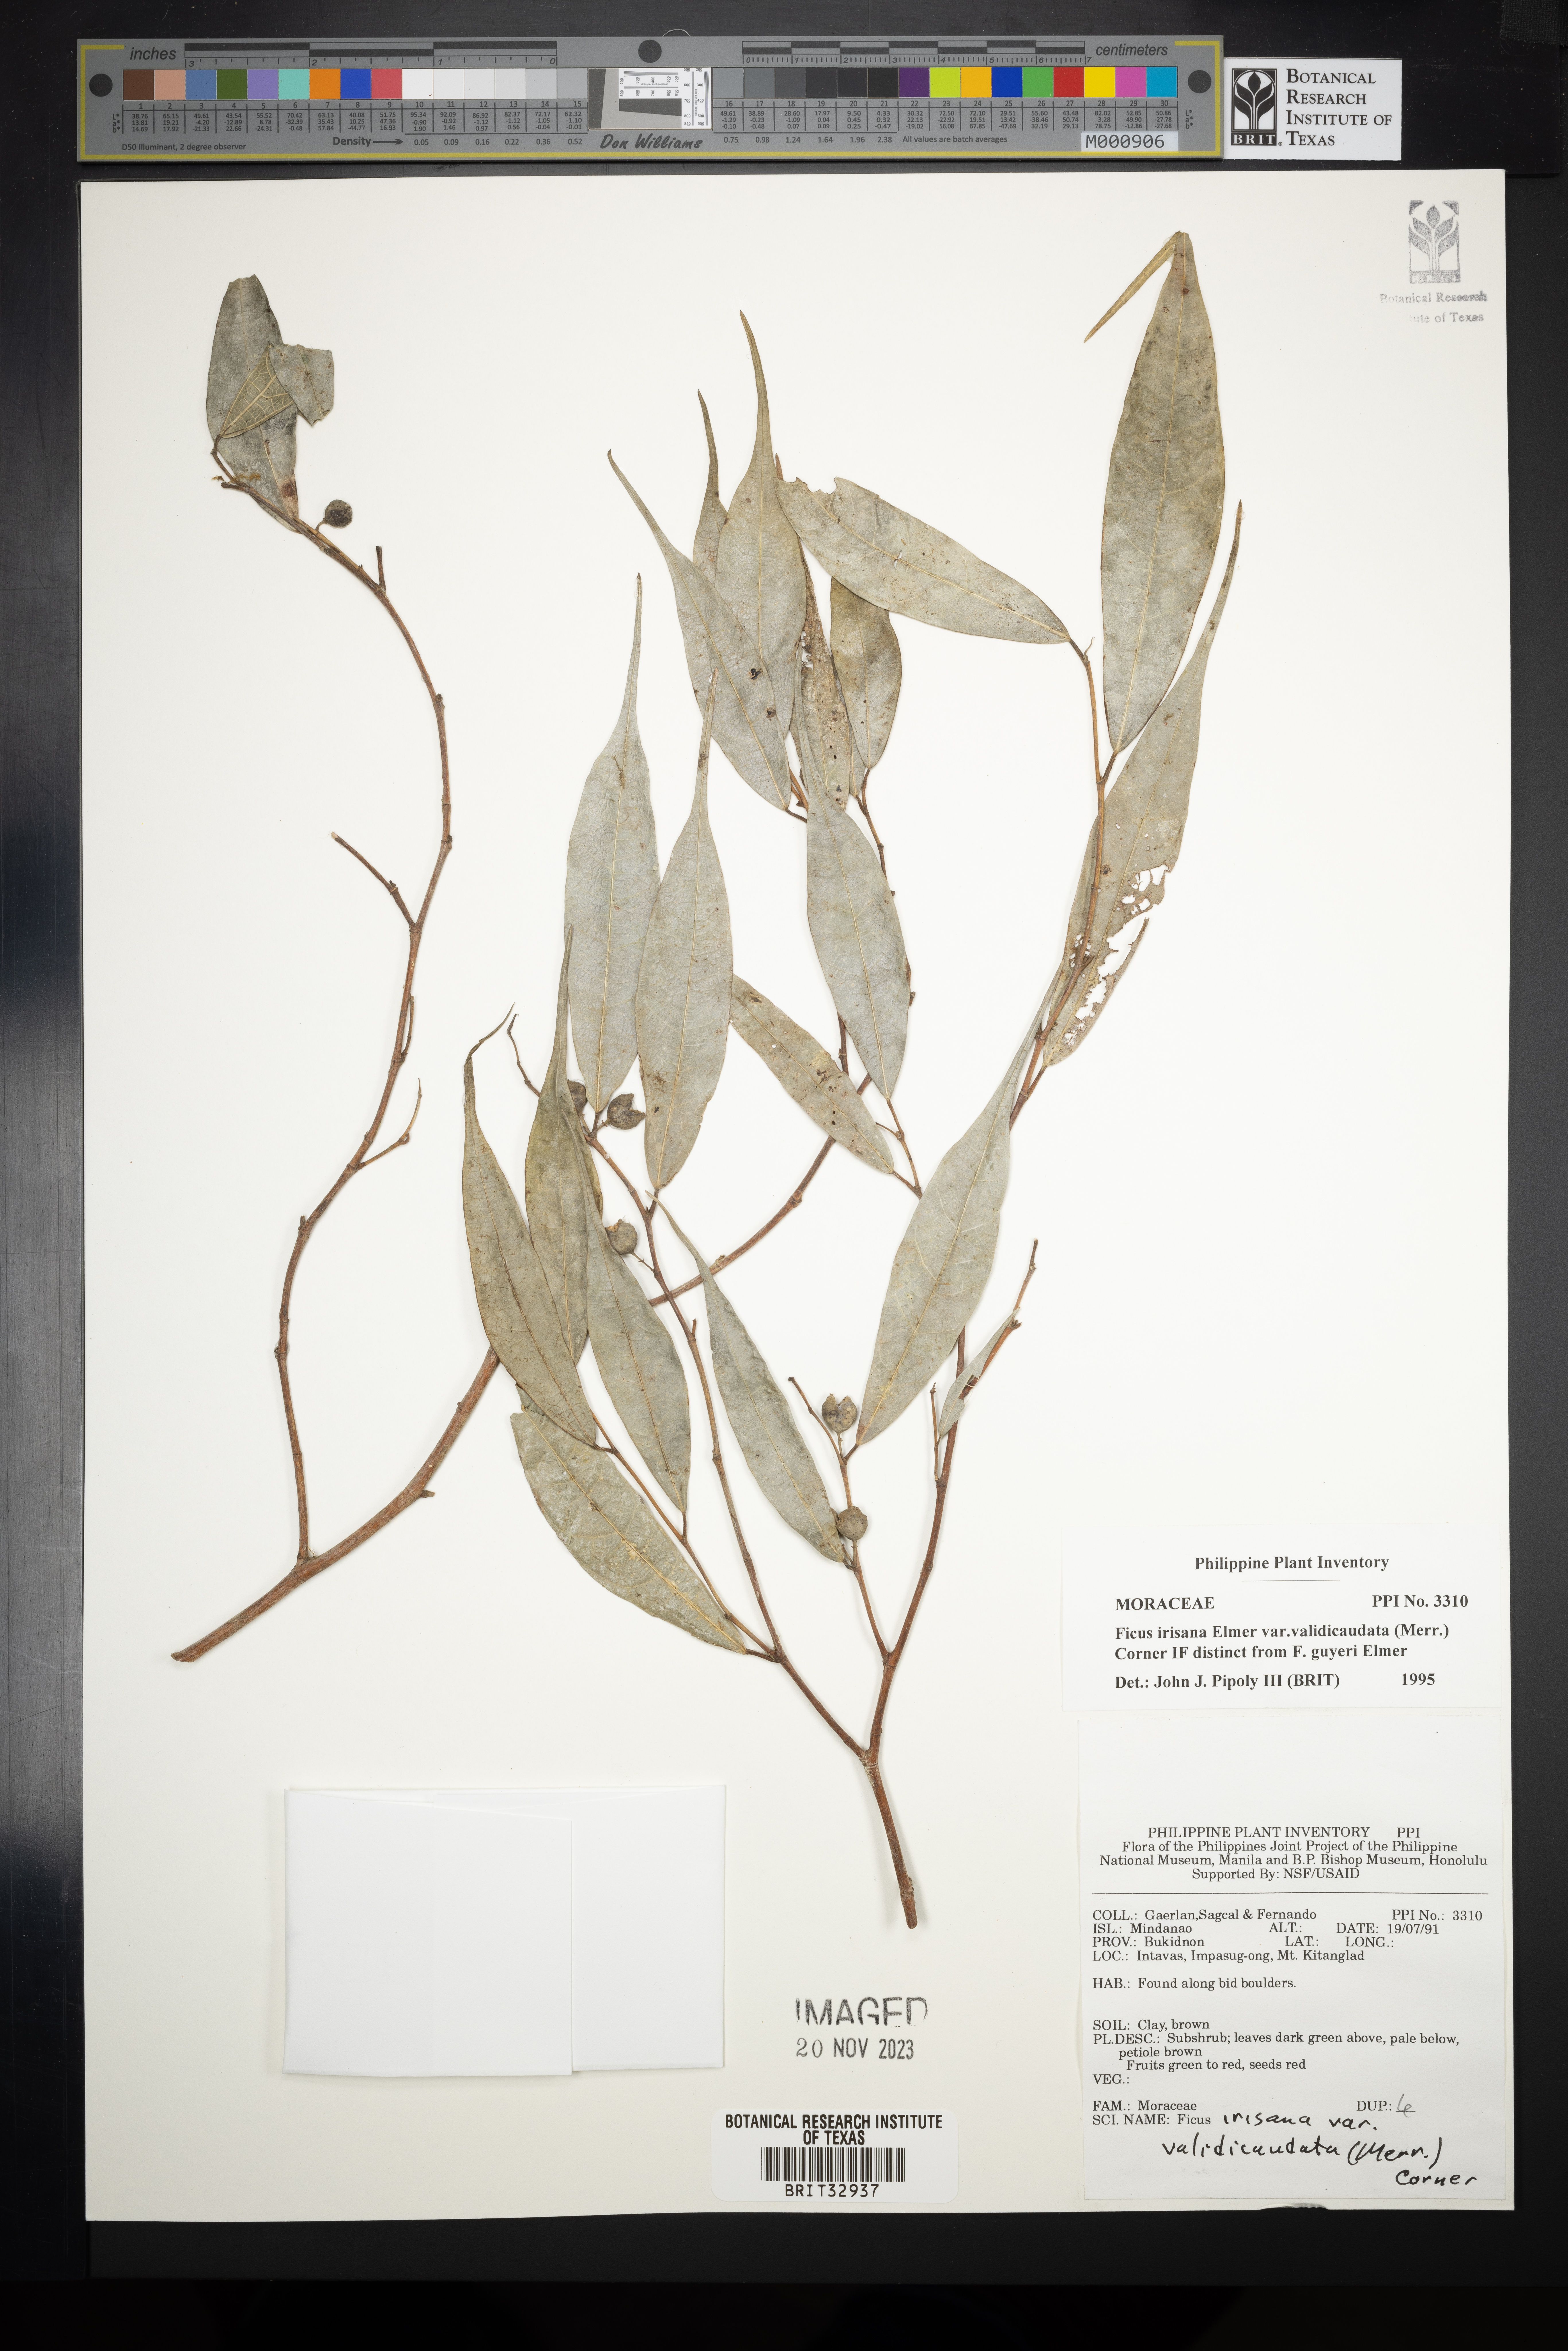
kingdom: Plantae
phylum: Tracheophyta
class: Magnoliopsida
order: Rosales
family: Moraceae
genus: Ficus
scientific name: Ficus ampelos
